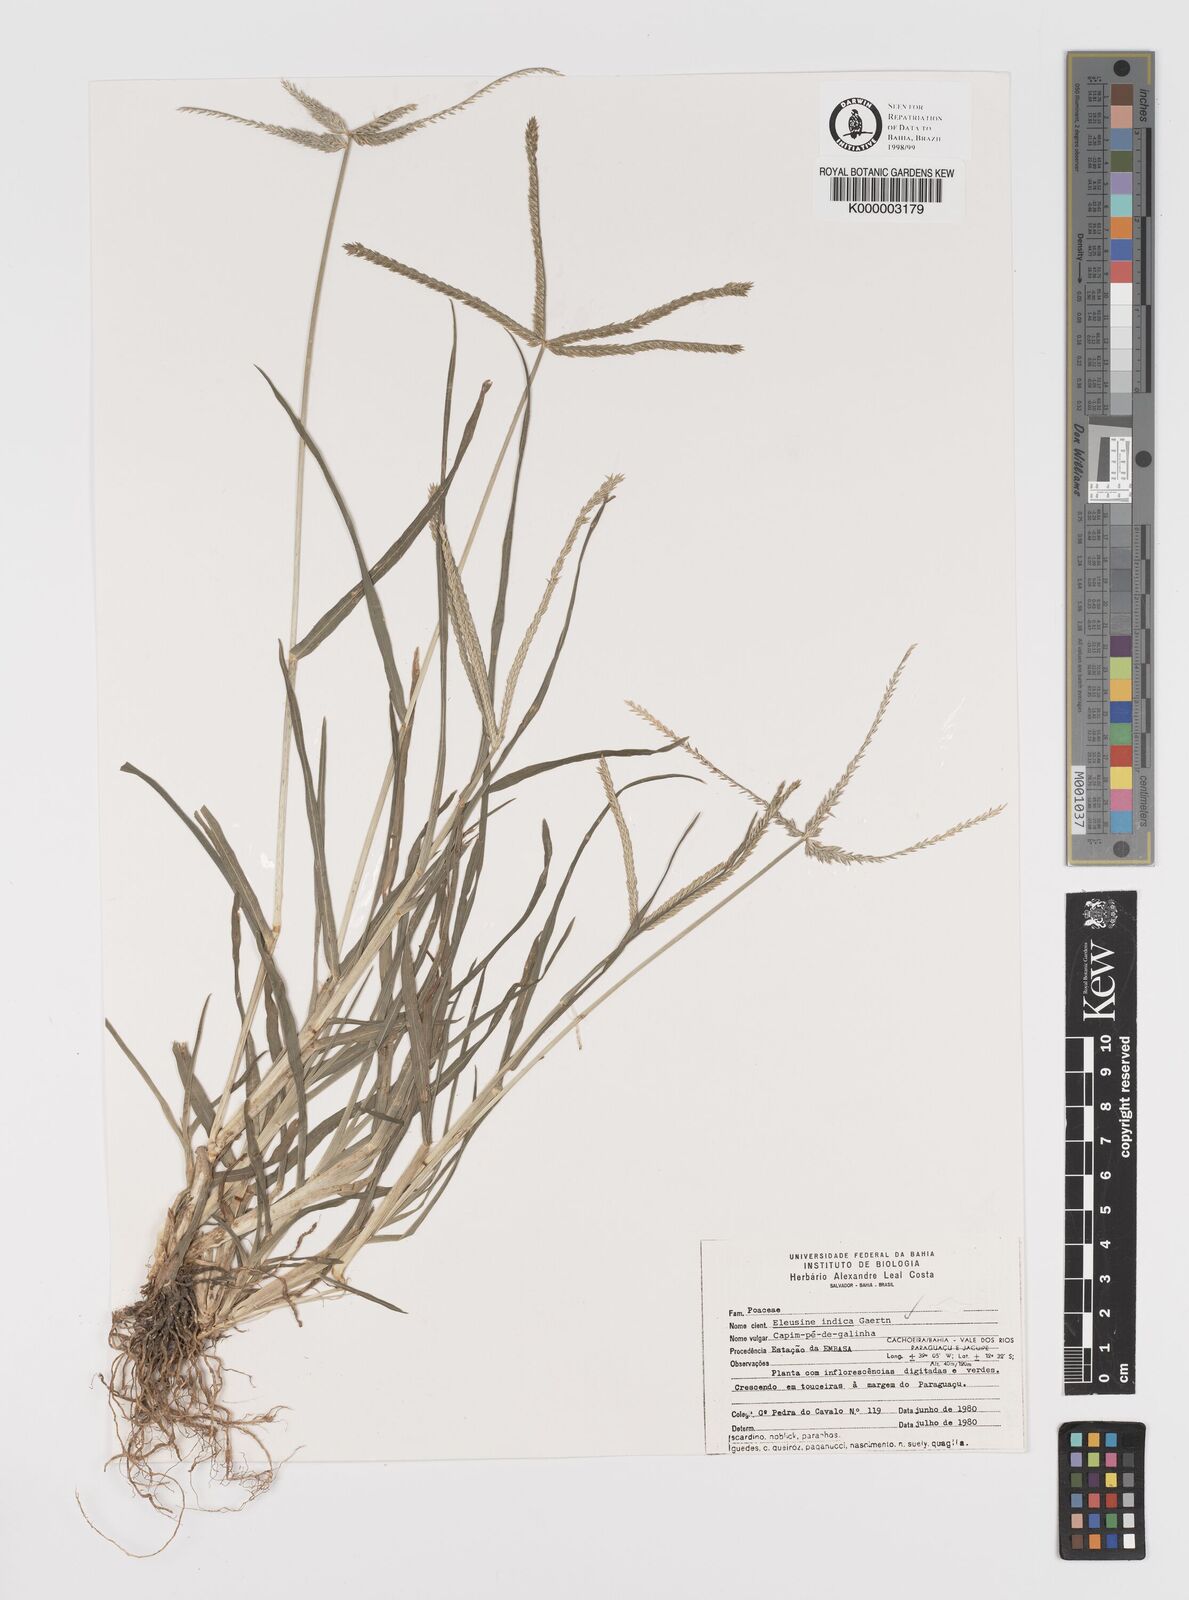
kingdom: Plantae
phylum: Tracheophyta
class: Liliopsida
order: Poales
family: Poaceae
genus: Eleusine
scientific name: Eleusine indica
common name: Yard-grass
